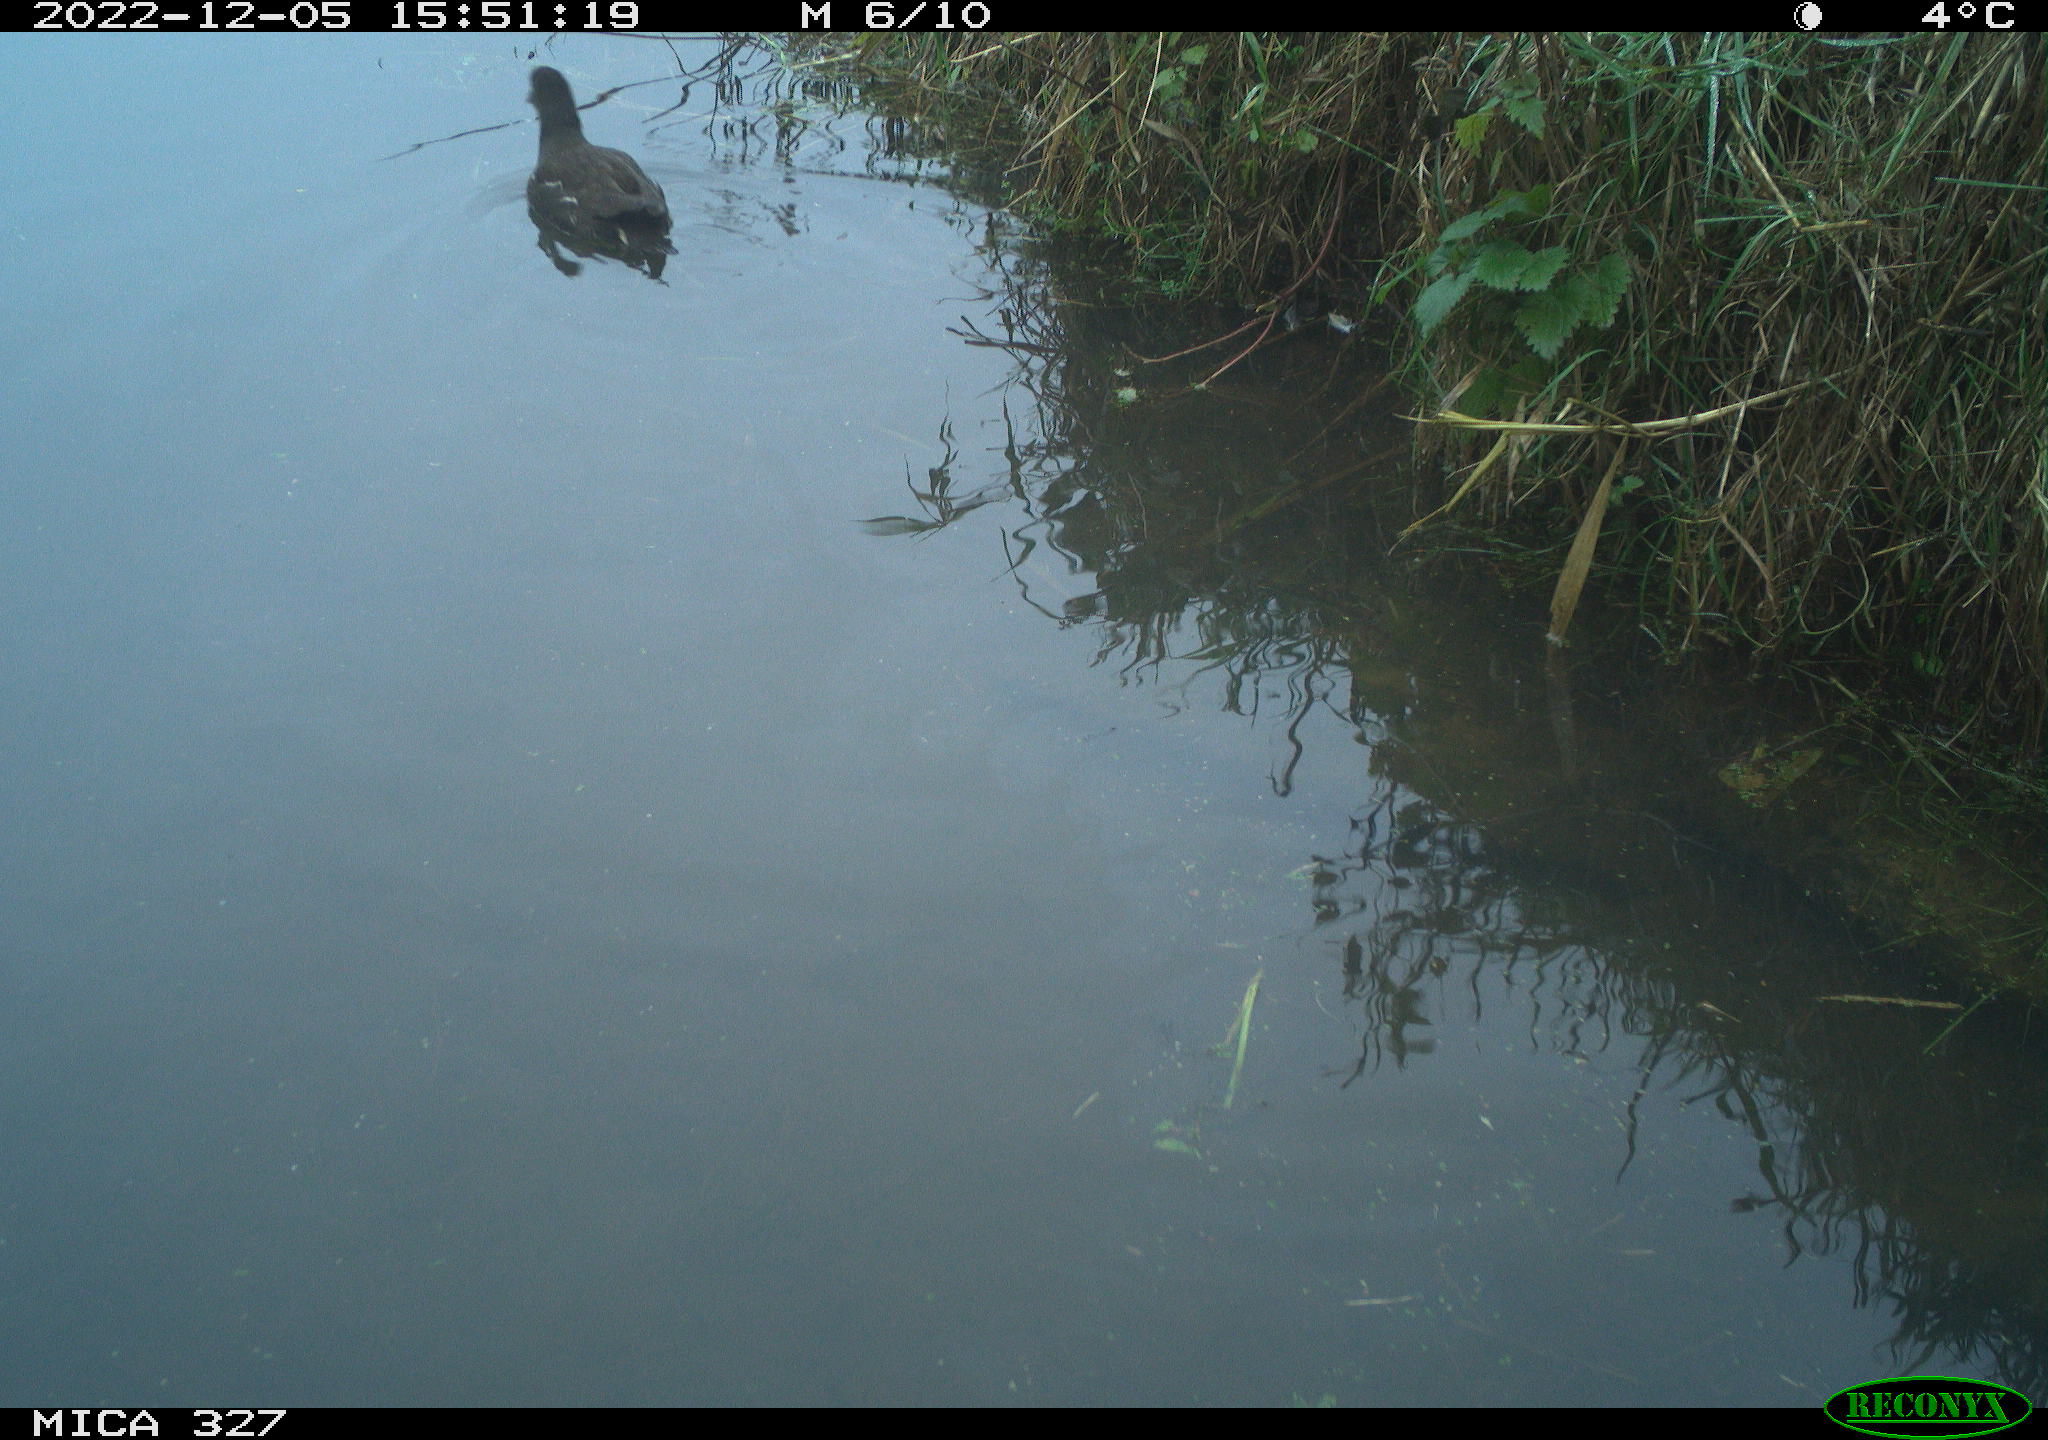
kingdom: Animalia
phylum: Chordata
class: Aves
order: Gruiformes
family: Rallidae
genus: Gallinula
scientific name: Gallinula chloropus
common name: Common moorhen
